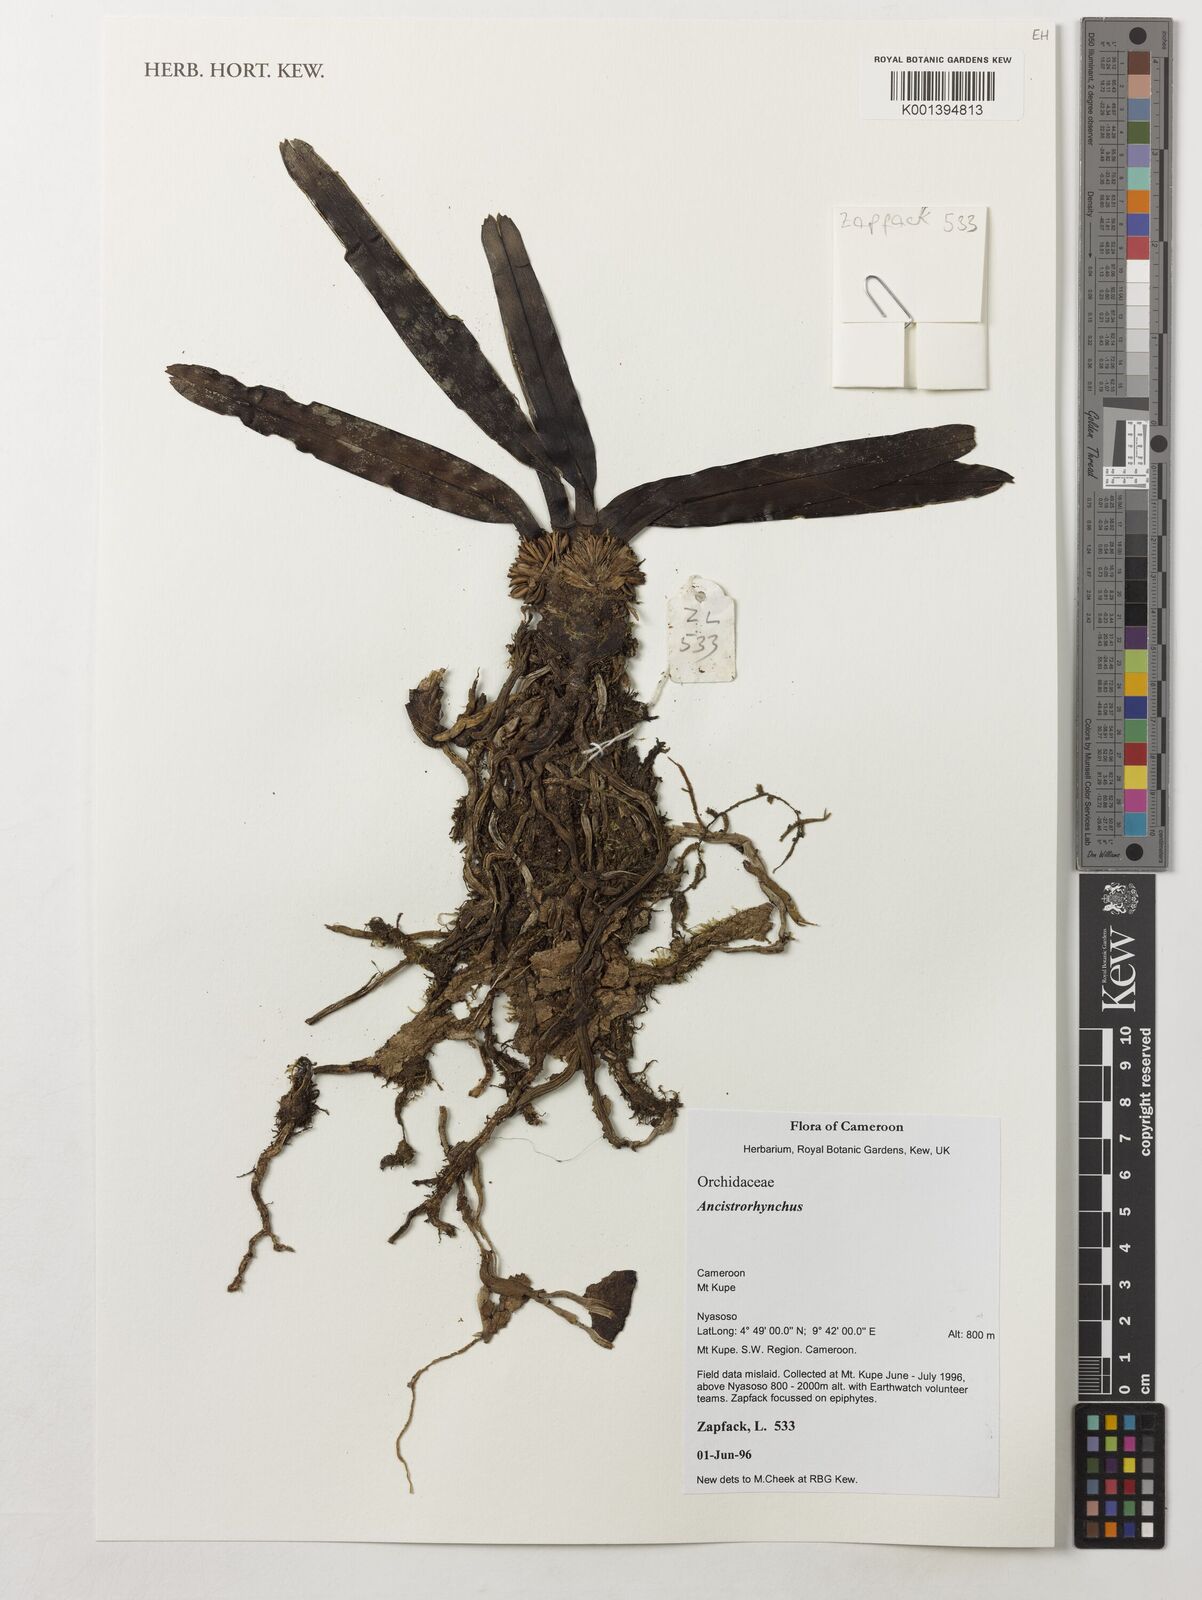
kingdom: Plantae
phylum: Tracheophyta
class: Liliopsida
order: Asparagales
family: Orchidaceae
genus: Ancistrorhynchus
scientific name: Ancistrorhynchus
